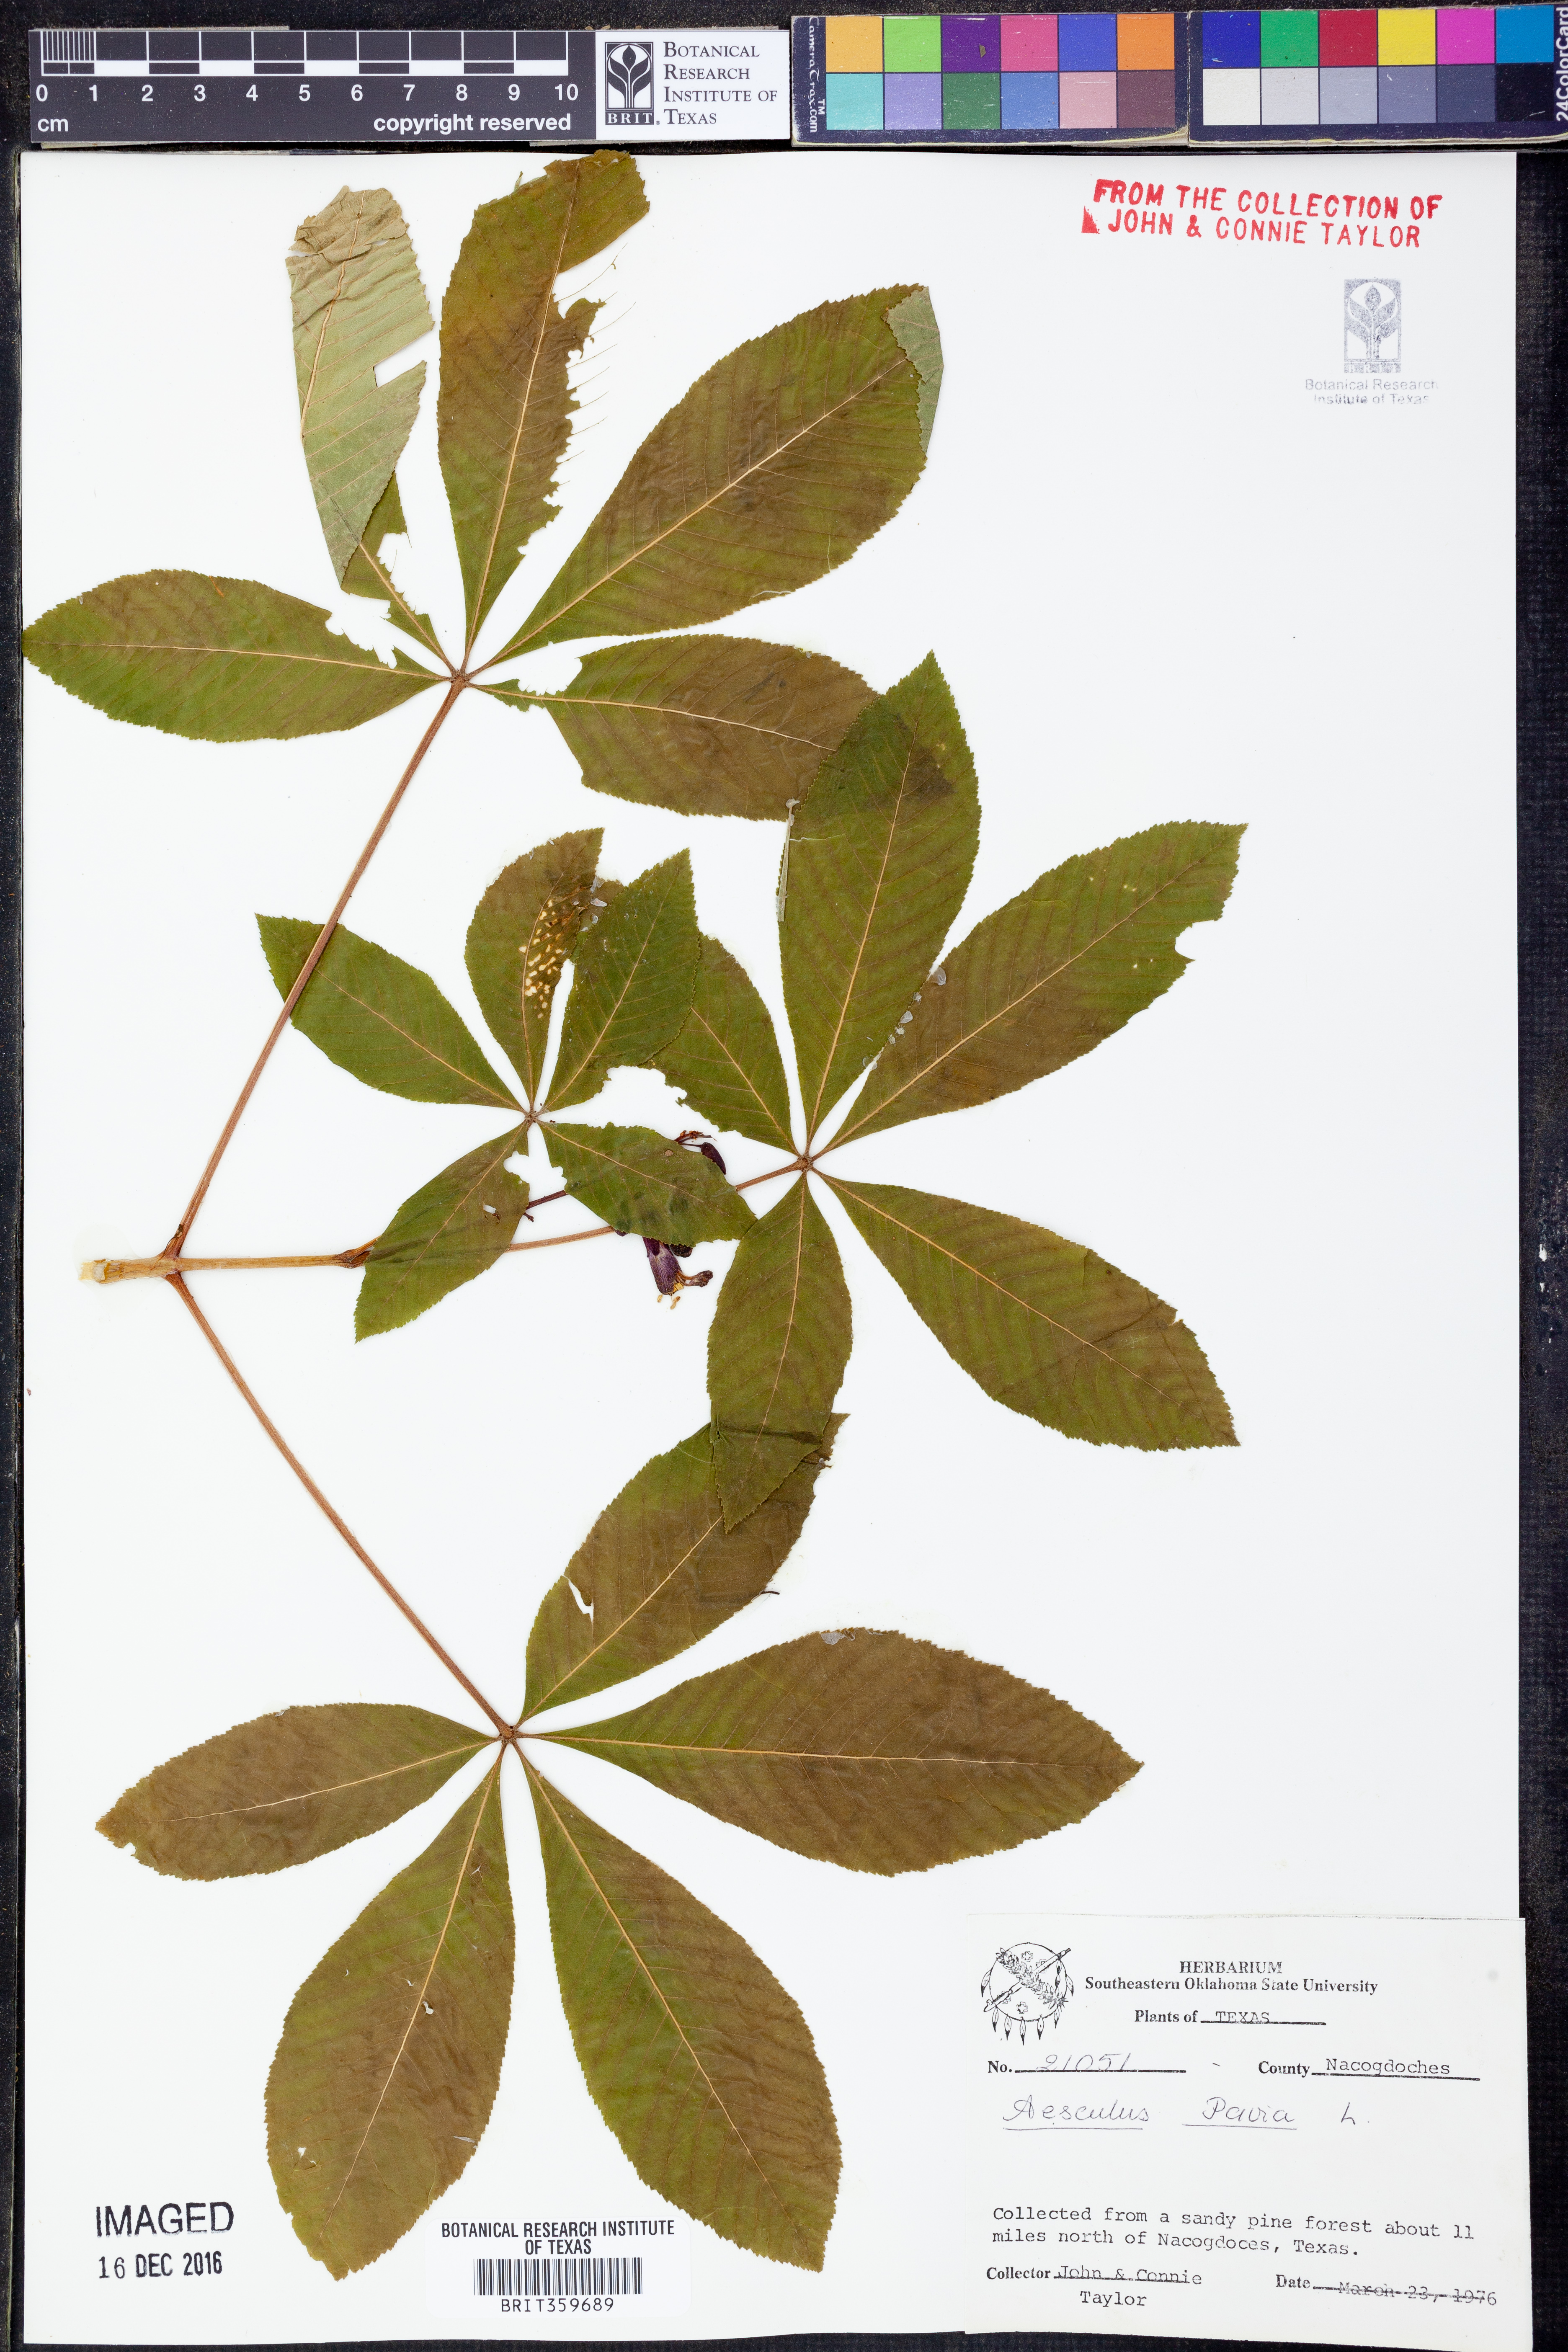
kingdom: Plantae
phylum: Tracheophyta
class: Magnoliopsida
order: Sapindales
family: Sapindaceae
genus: Aesculus
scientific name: Aesculus pavia
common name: Red buckeye
